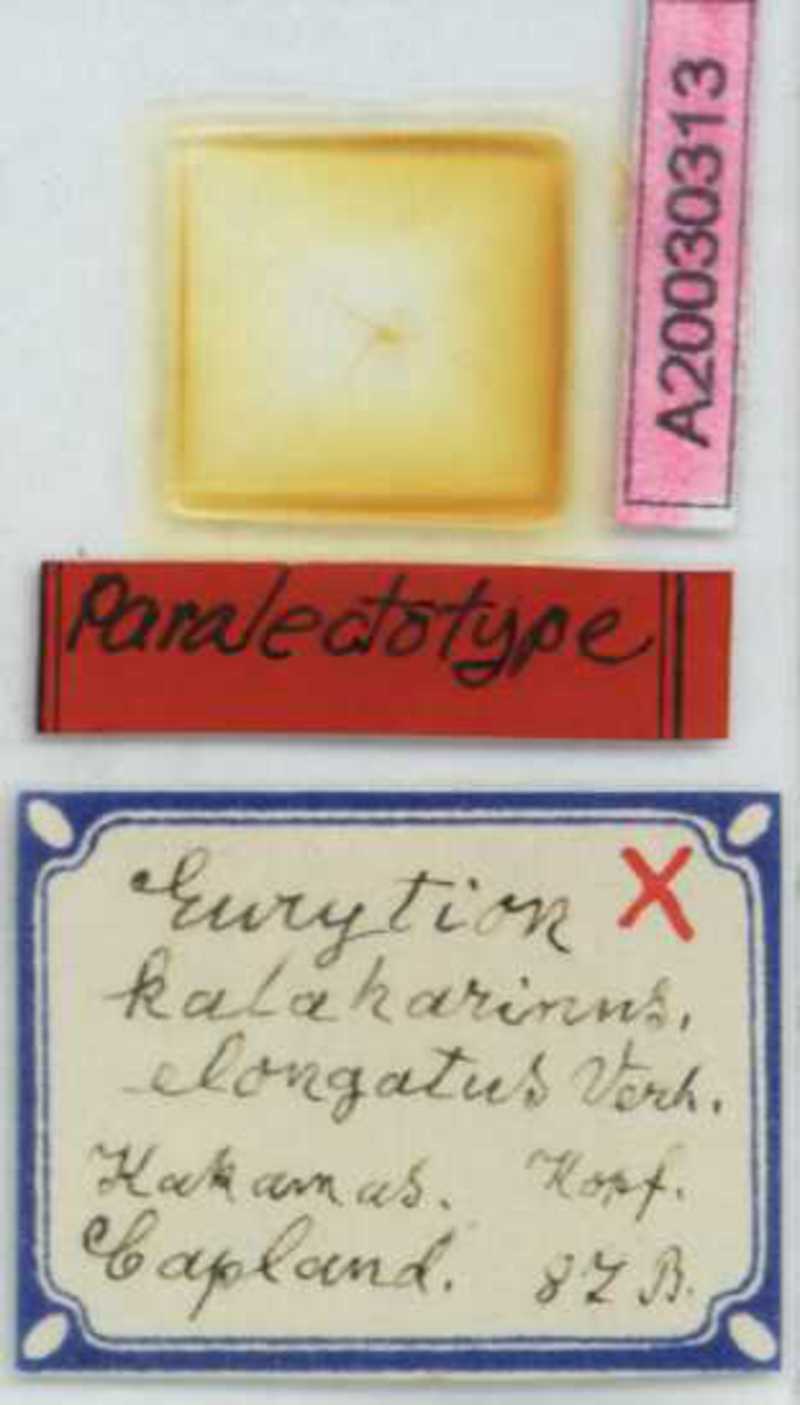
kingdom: Animalia
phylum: Arthropoda
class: Chilopoda
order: Geophilomorpha
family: Geophilidae
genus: Eurytion
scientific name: Eurytion kalaharinus
